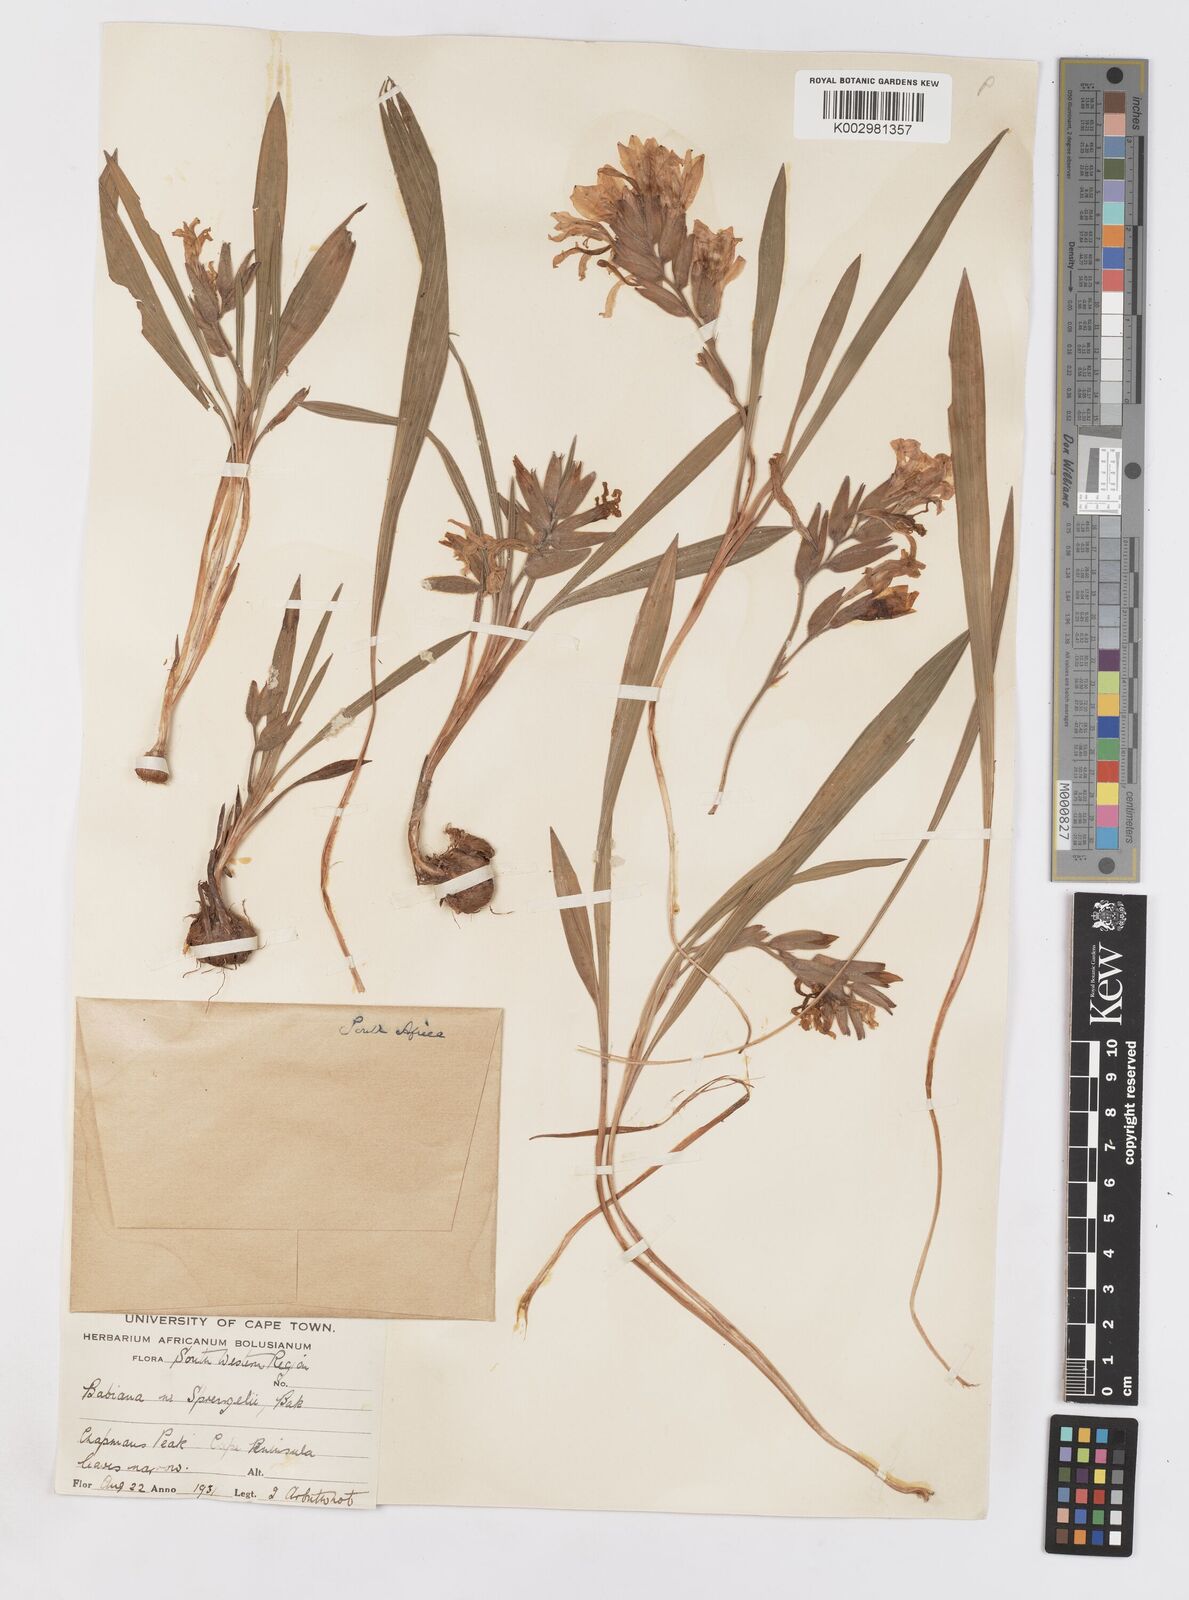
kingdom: Plantae
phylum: Tracheophyta
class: Liliopsida
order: Asparagales
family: Iridaceae
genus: Babiana
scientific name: Babiana
